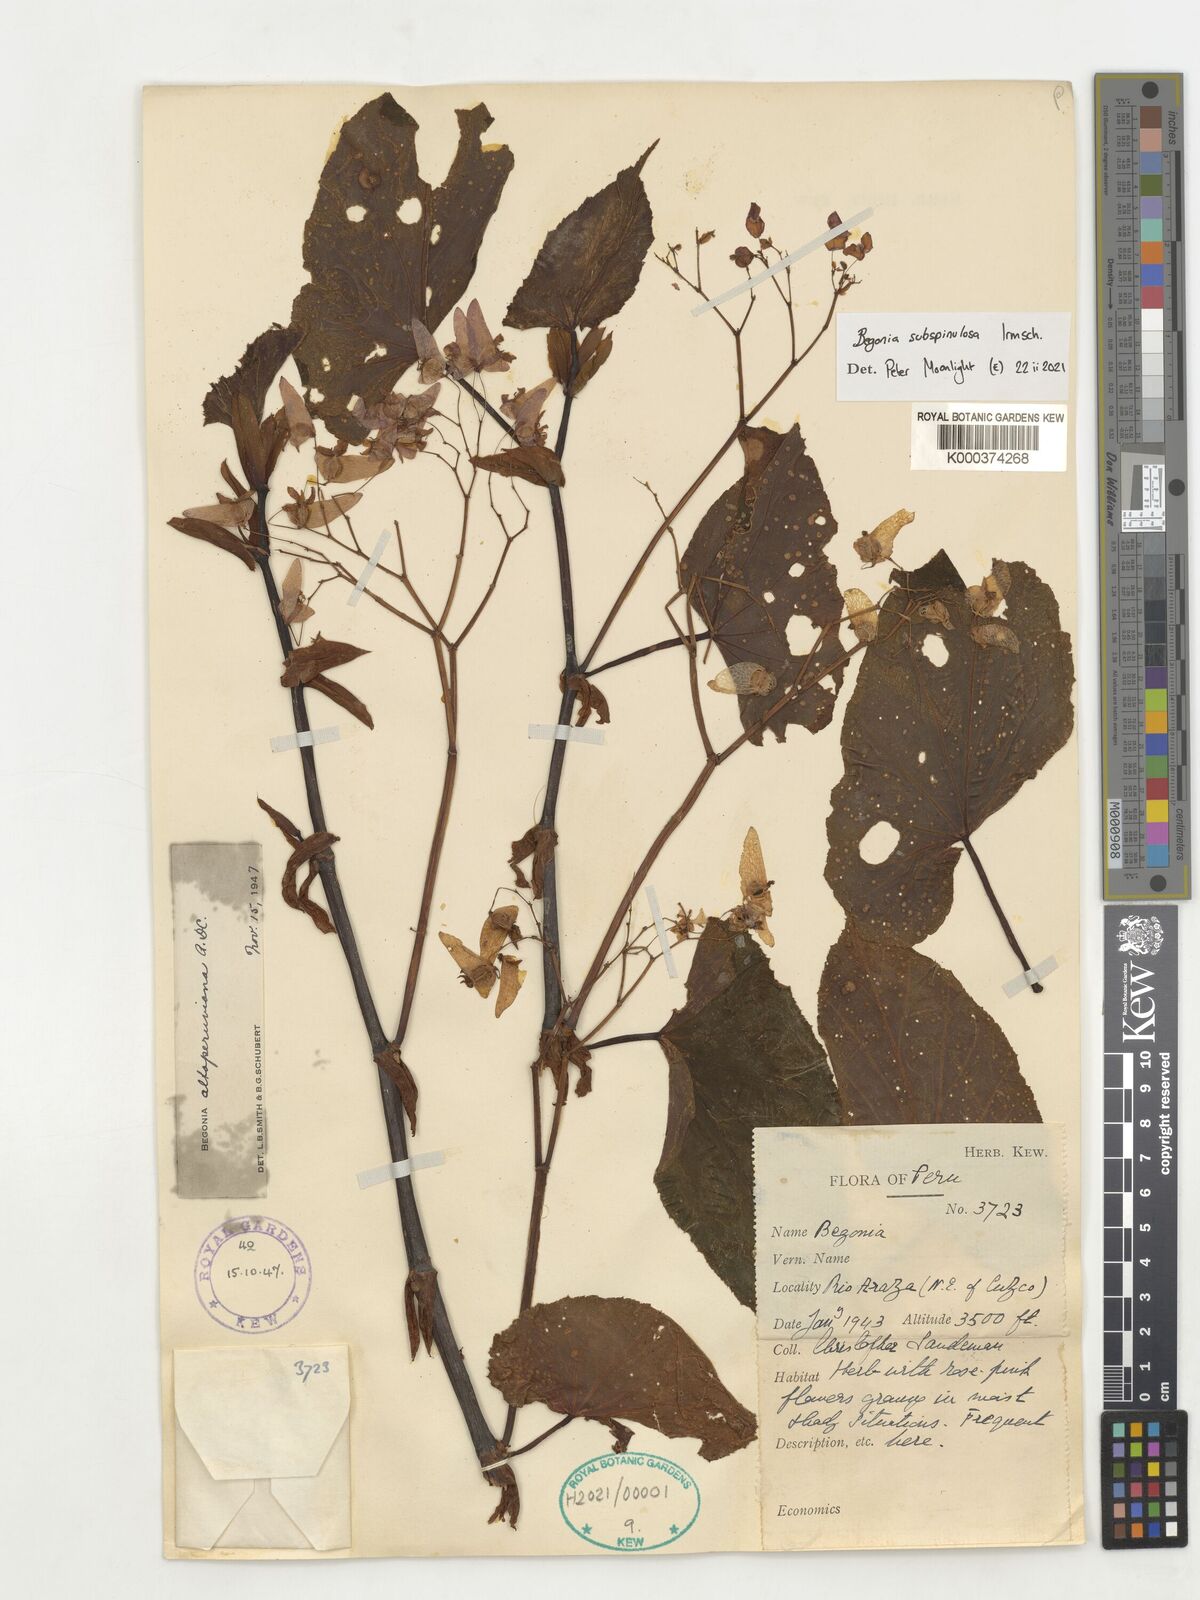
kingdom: Plantae
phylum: Tracheophyta
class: Magnoliopsida
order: Cucurbitales
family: Begoniaceae
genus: Begonia
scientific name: Begonia subspinulosa
